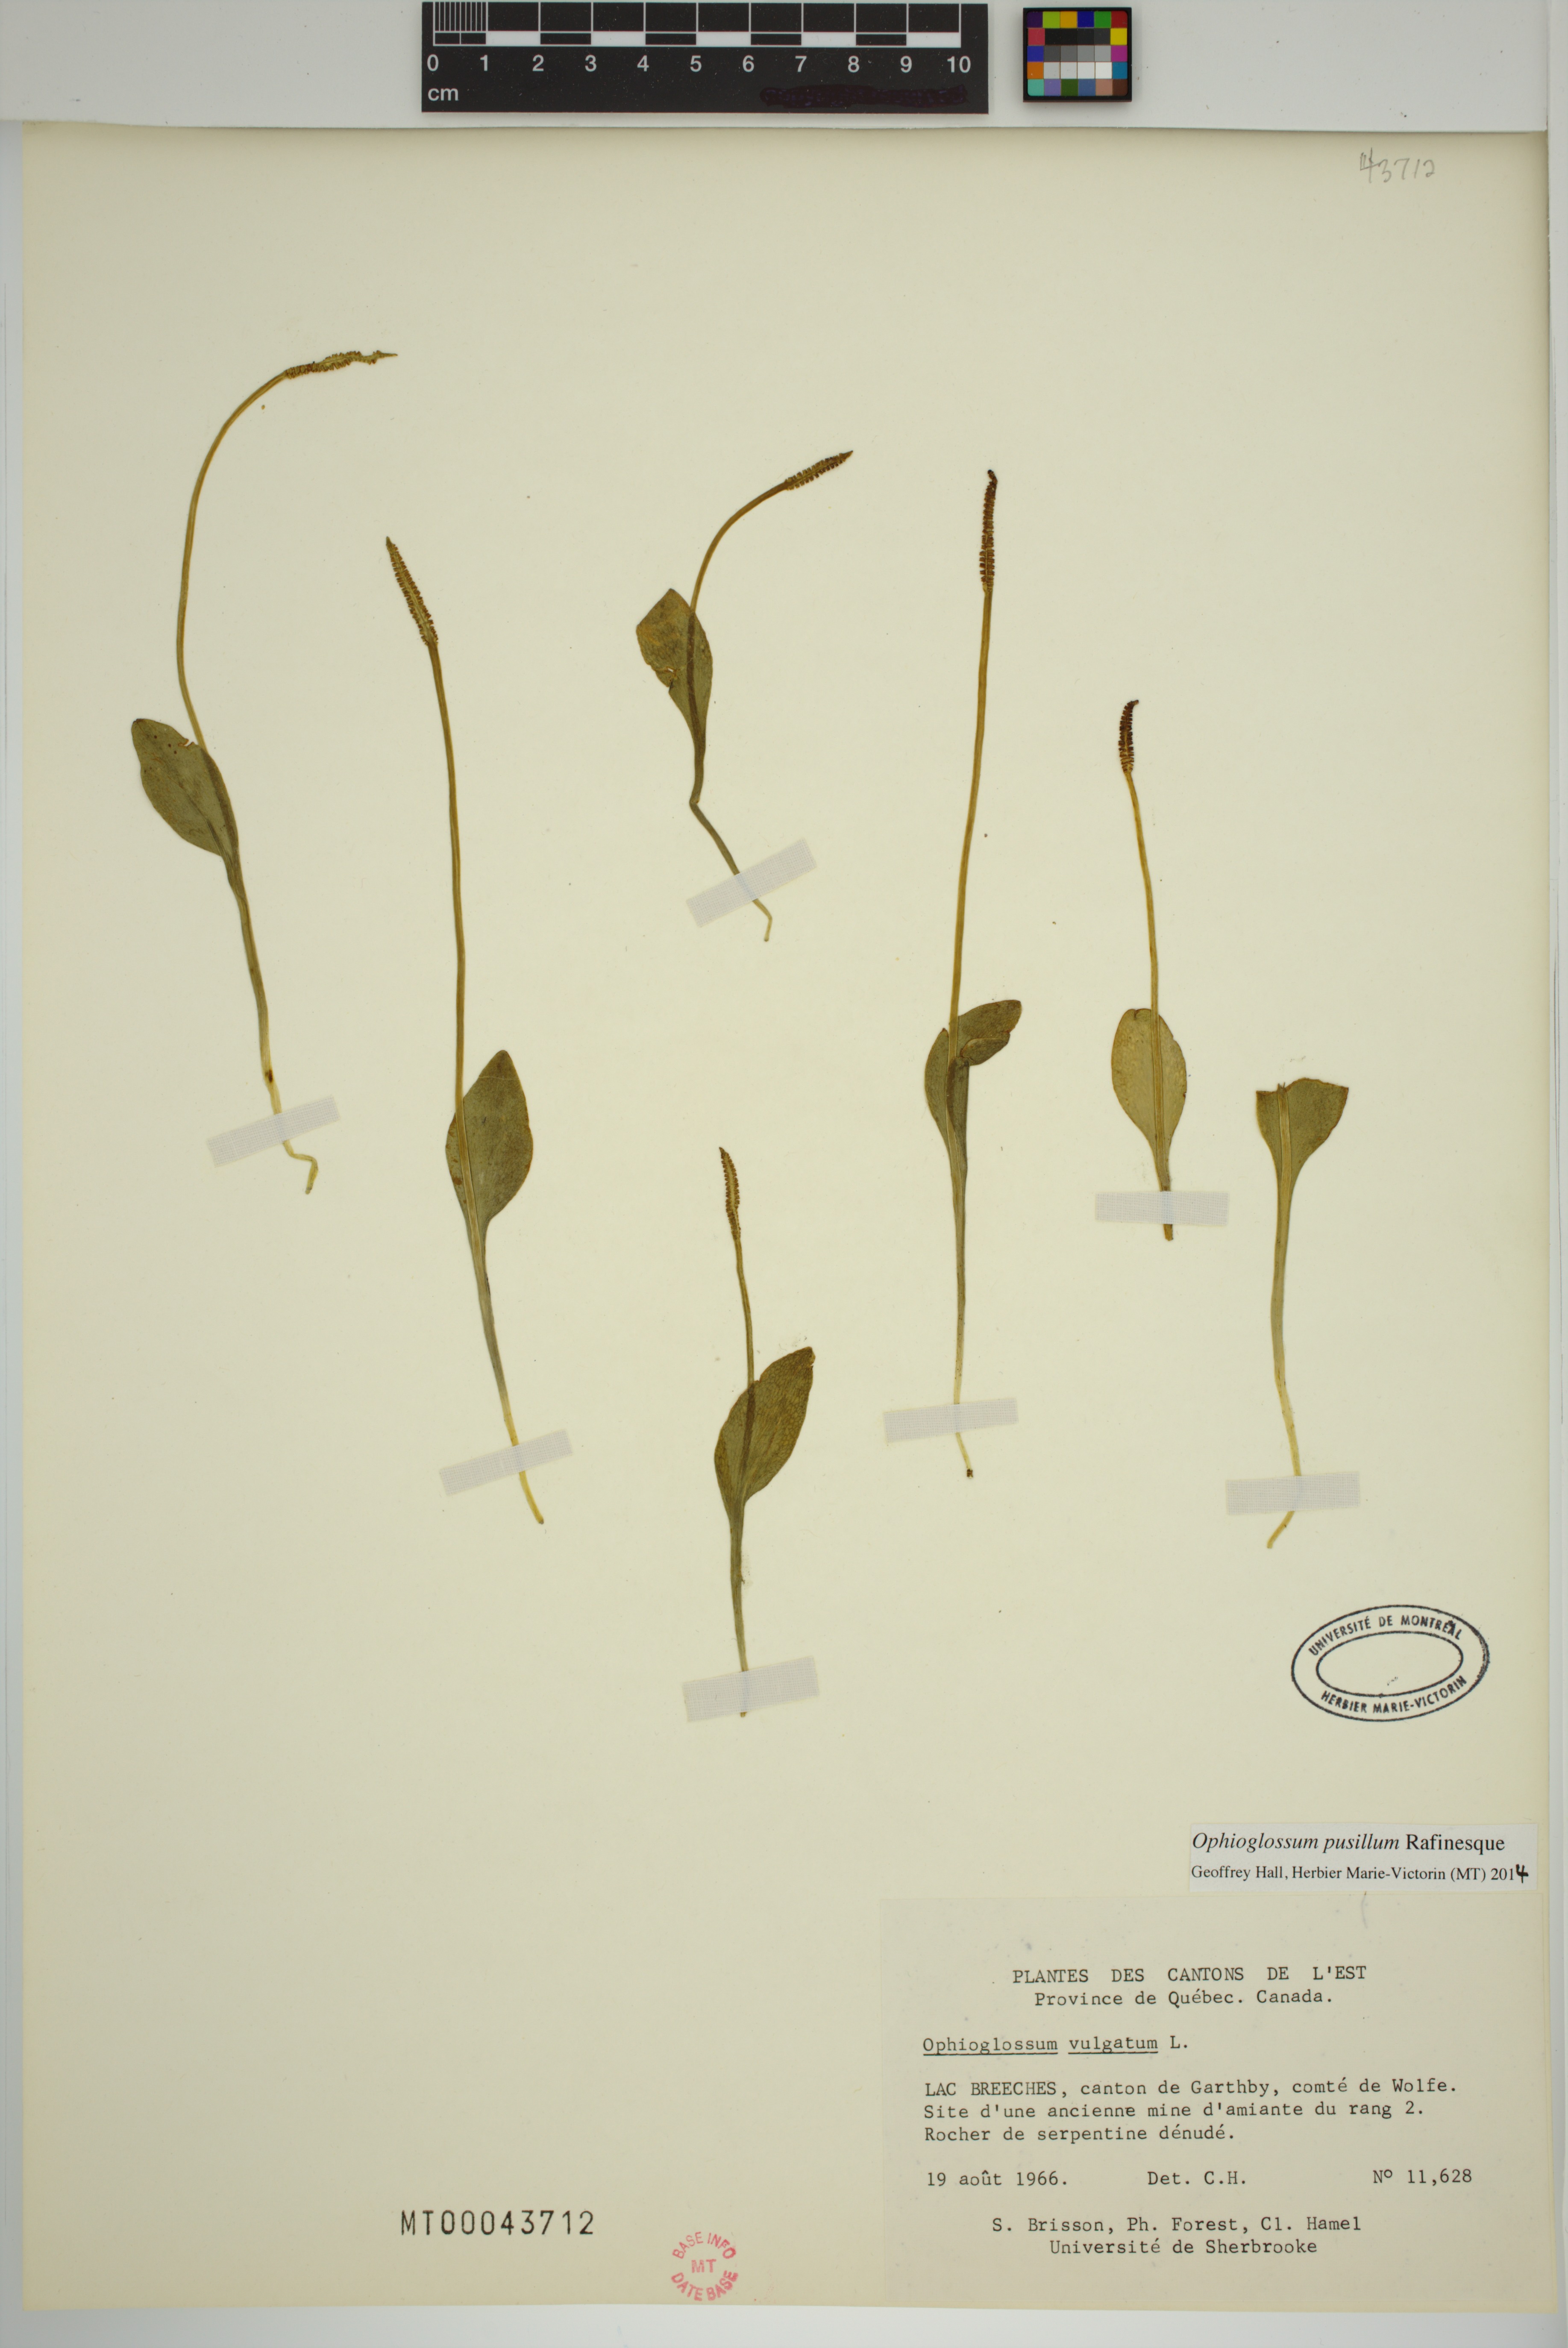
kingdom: Plantae
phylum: Tracheophyta
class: Polypodiopsida
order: Ophioglossales
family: Ophioglossaceae
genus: Ophioglossum
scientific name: Ophioglossum pusillum
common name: Northern adder's-tongue
